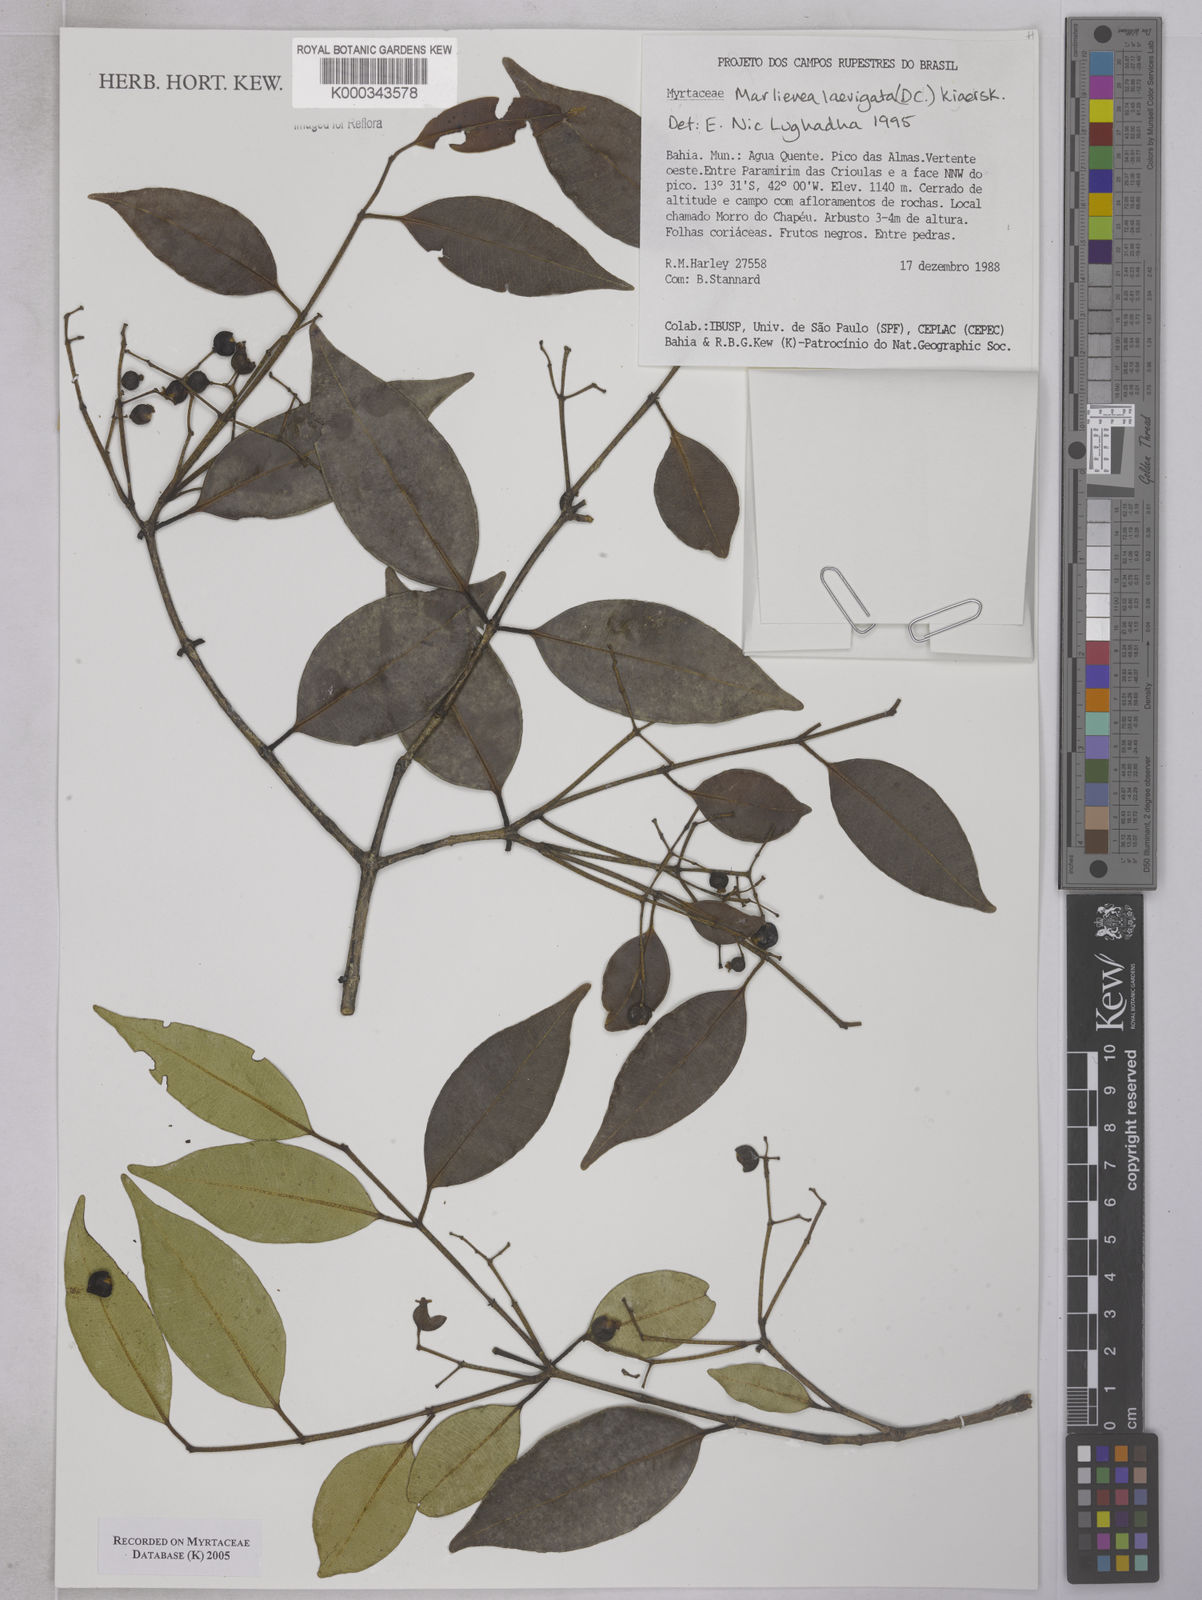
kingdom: Plantae
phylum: Tracheophyta
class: Magnoliopsida
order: Myrtales
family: Myrtaceae
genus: Myrcia
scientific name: Myrcia multipunctata
